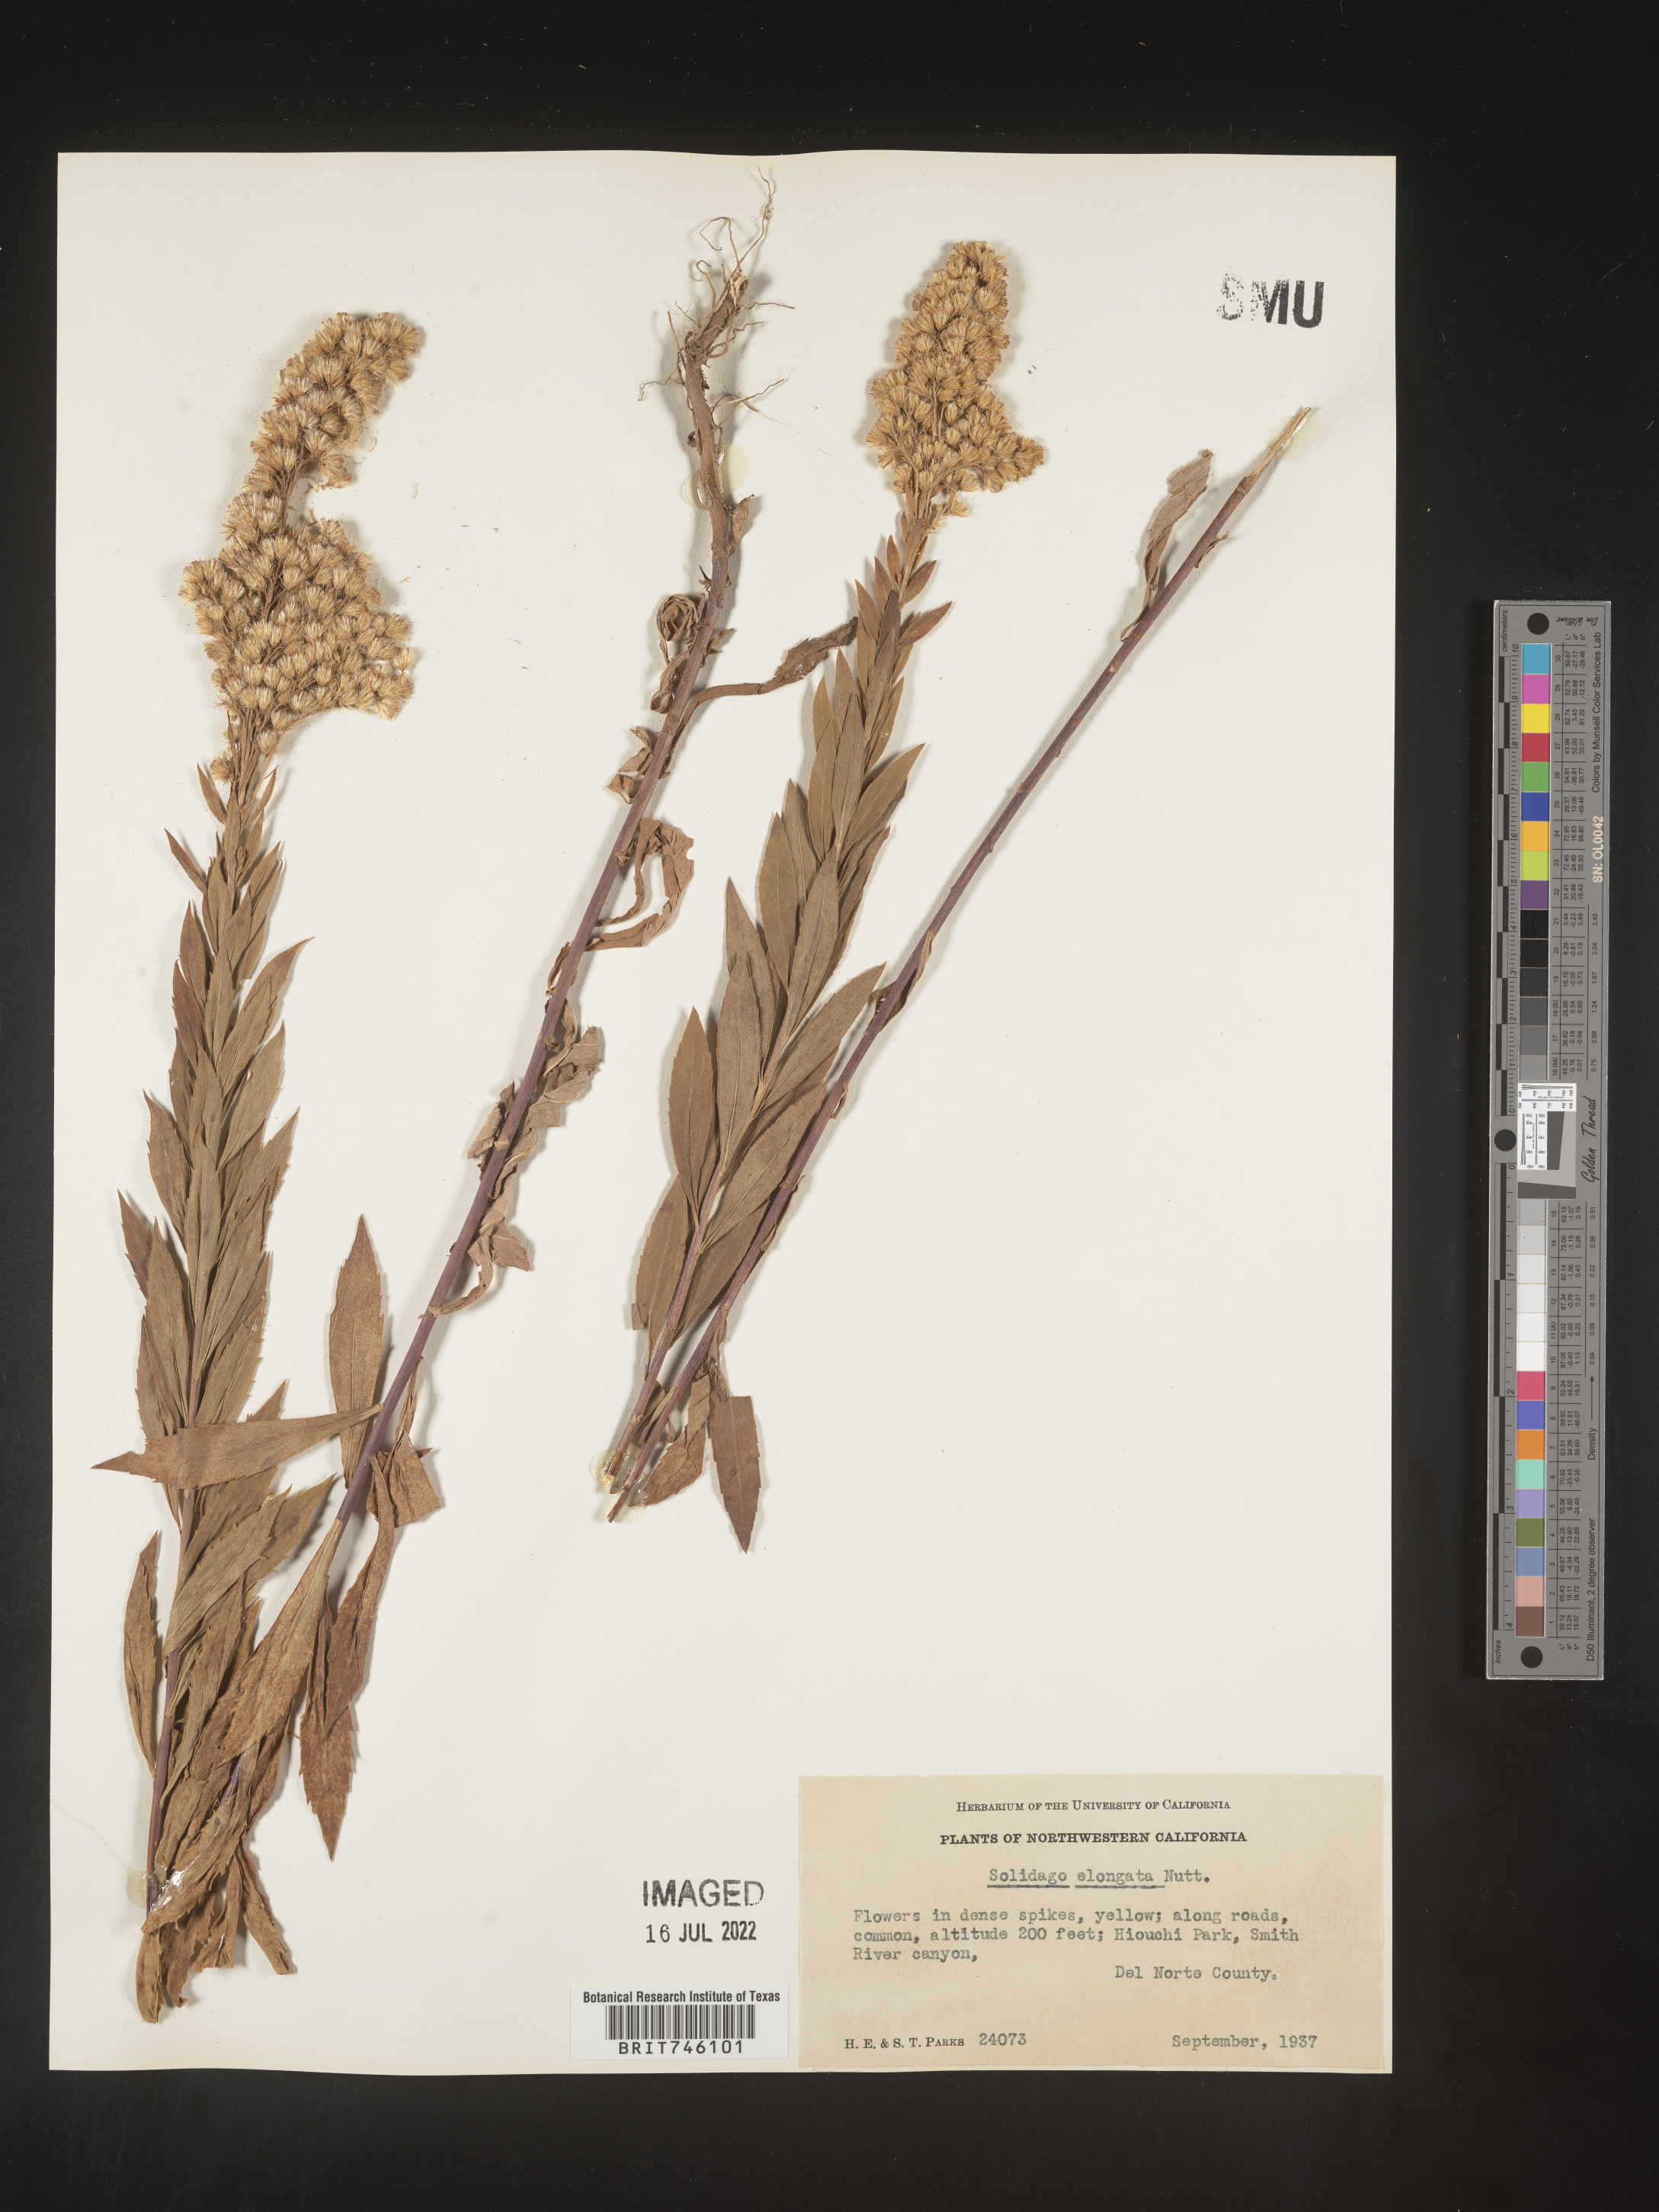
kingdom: Plantae
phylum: Tracheophyta
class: Magnoliopsida
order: Asterales
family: Asteraceae
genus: Solidago
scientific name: Solidago elongata
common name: Cascade canada goldenrod
